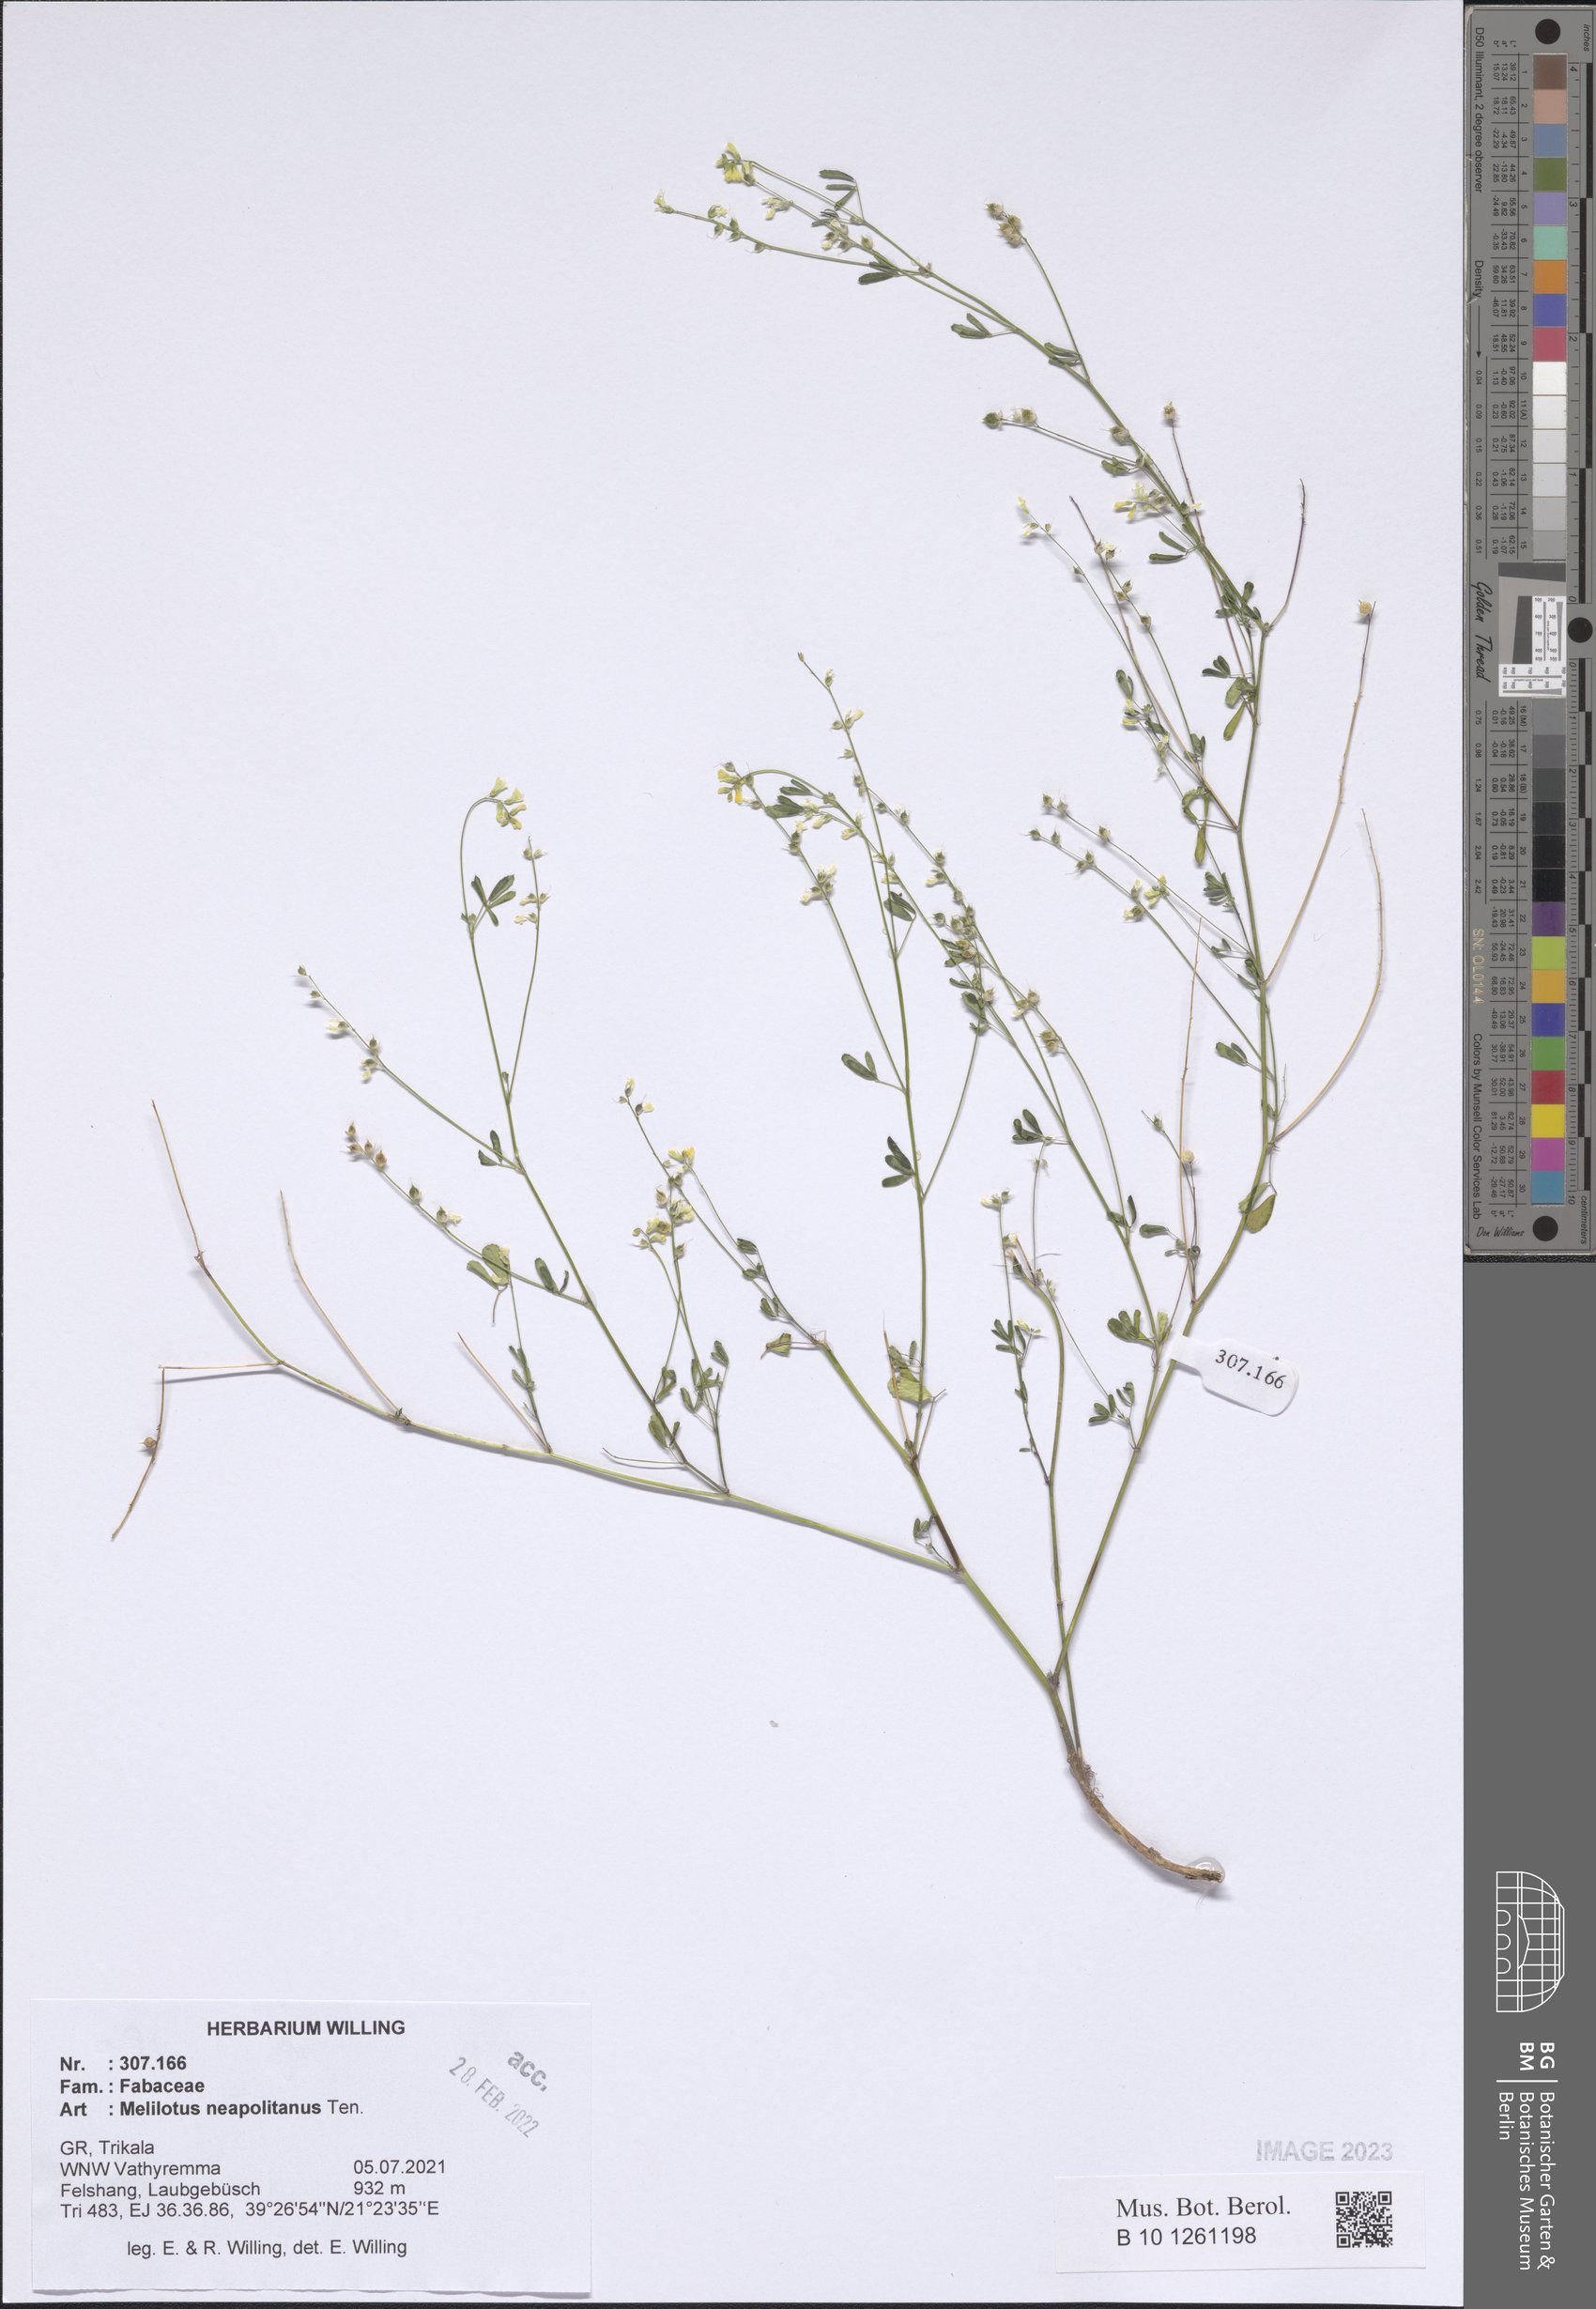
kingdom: Plantae
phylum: Tracheophyta
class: Magnoliopsida
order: Fabales
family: Fabaceae
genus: Melilotus
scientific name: Melilotus neapolitanus
